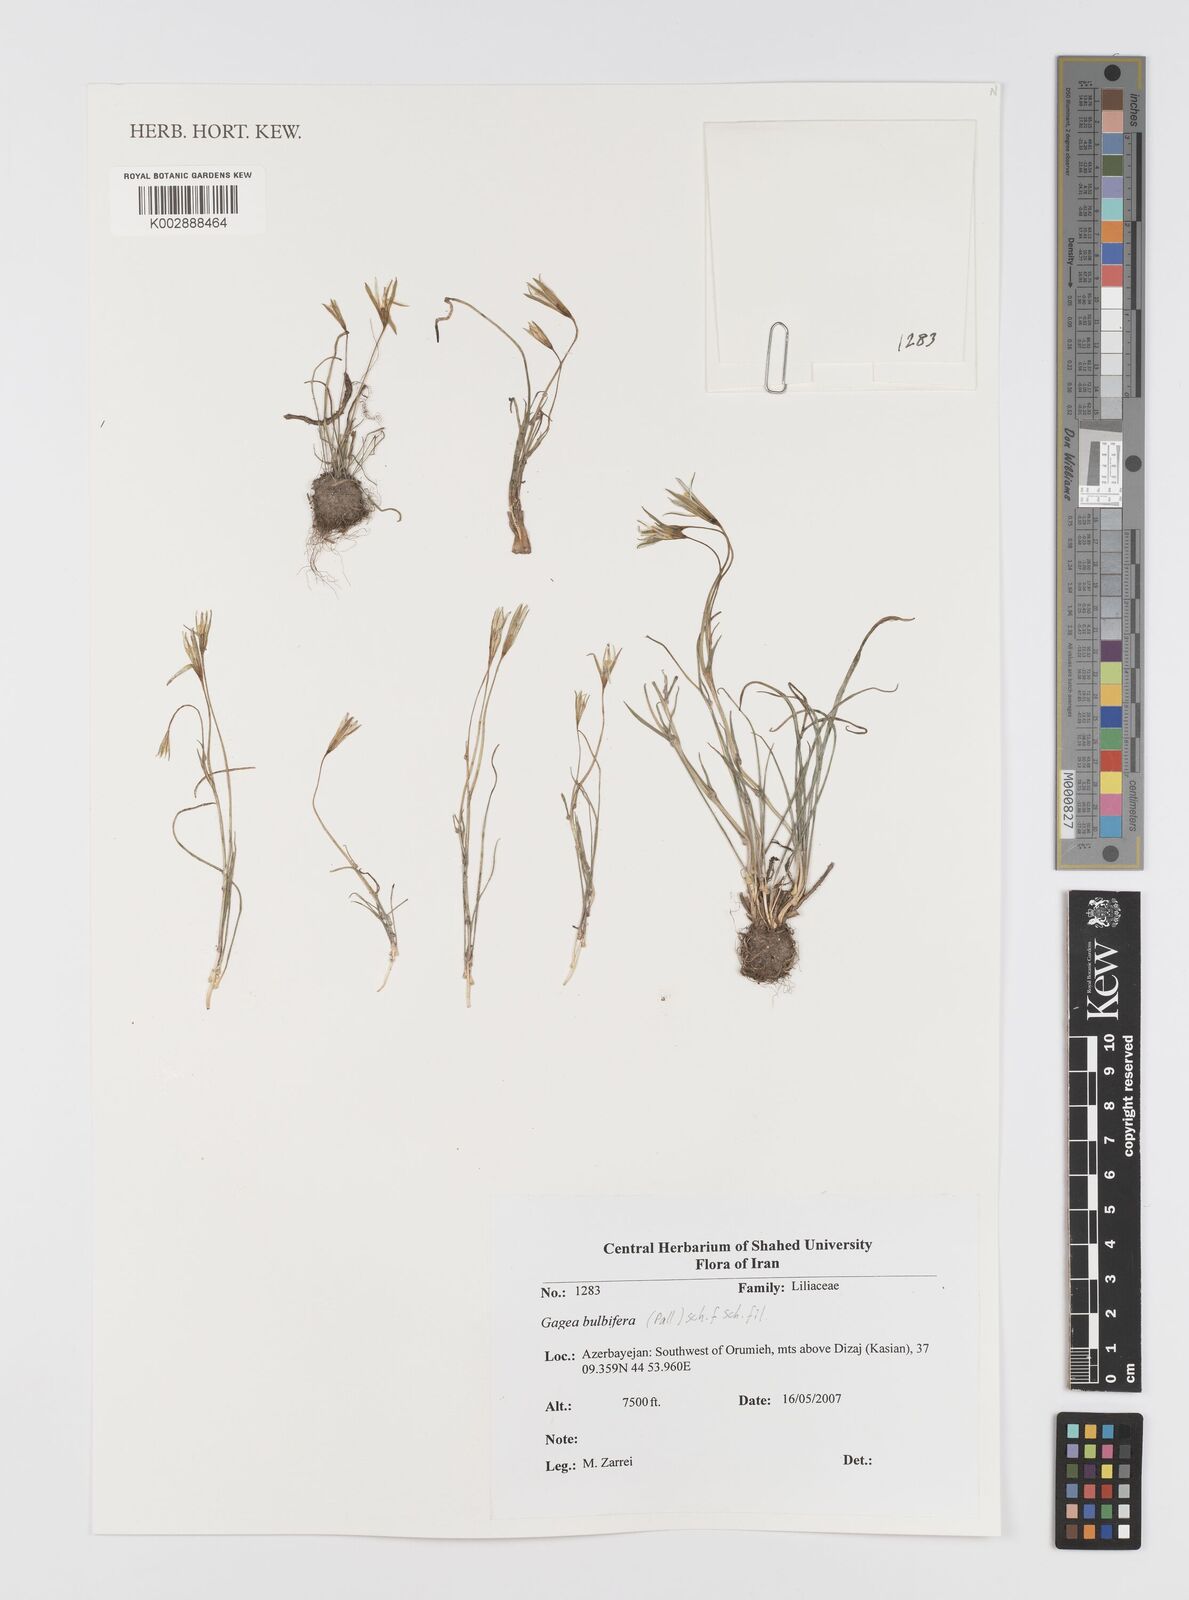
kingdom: Plantae
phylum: Tracheophyta
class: Liliopsida
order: Liliales
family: Liliaceae
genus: Gagea
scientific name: Gagea bulbifera
